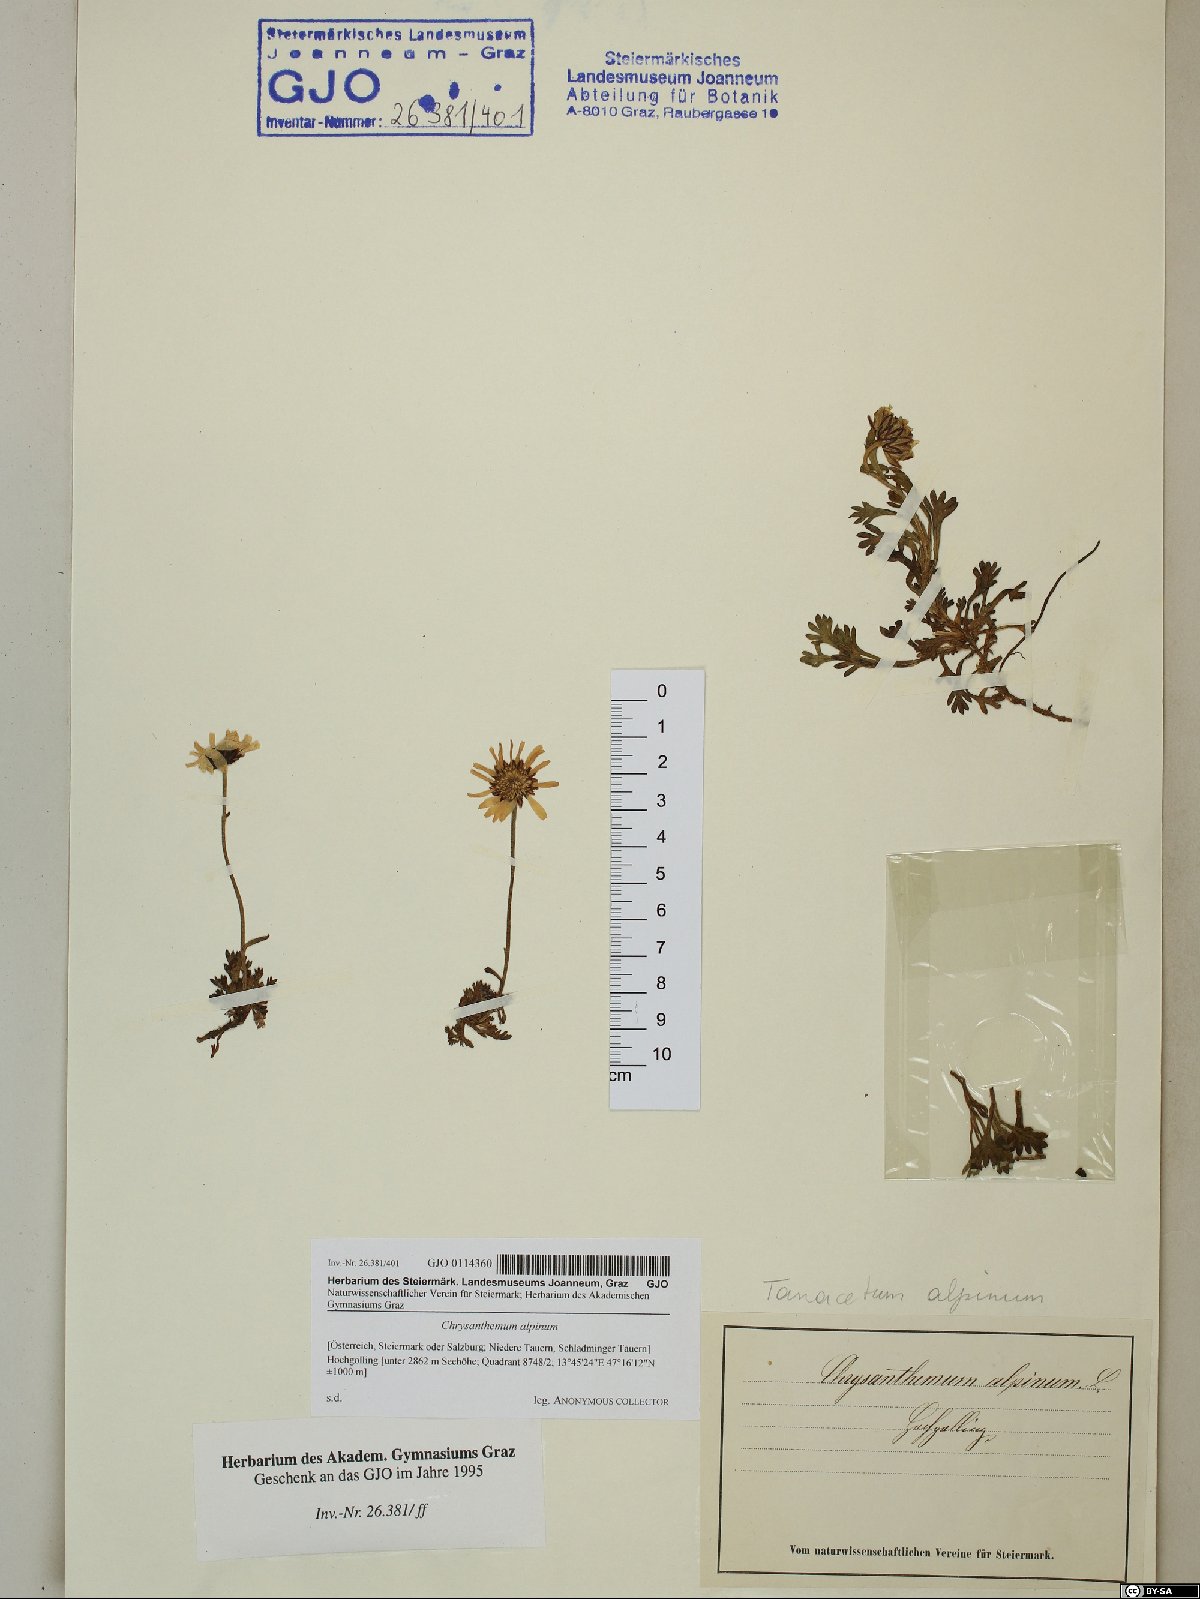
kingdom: Plantae
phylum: Tracheophyta
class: Magnoliopsida
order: Asterales
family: Asteraceae
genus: Leucanthemopsis
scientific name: Leucanthemopsis alpina
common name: Alpine moon daisy
